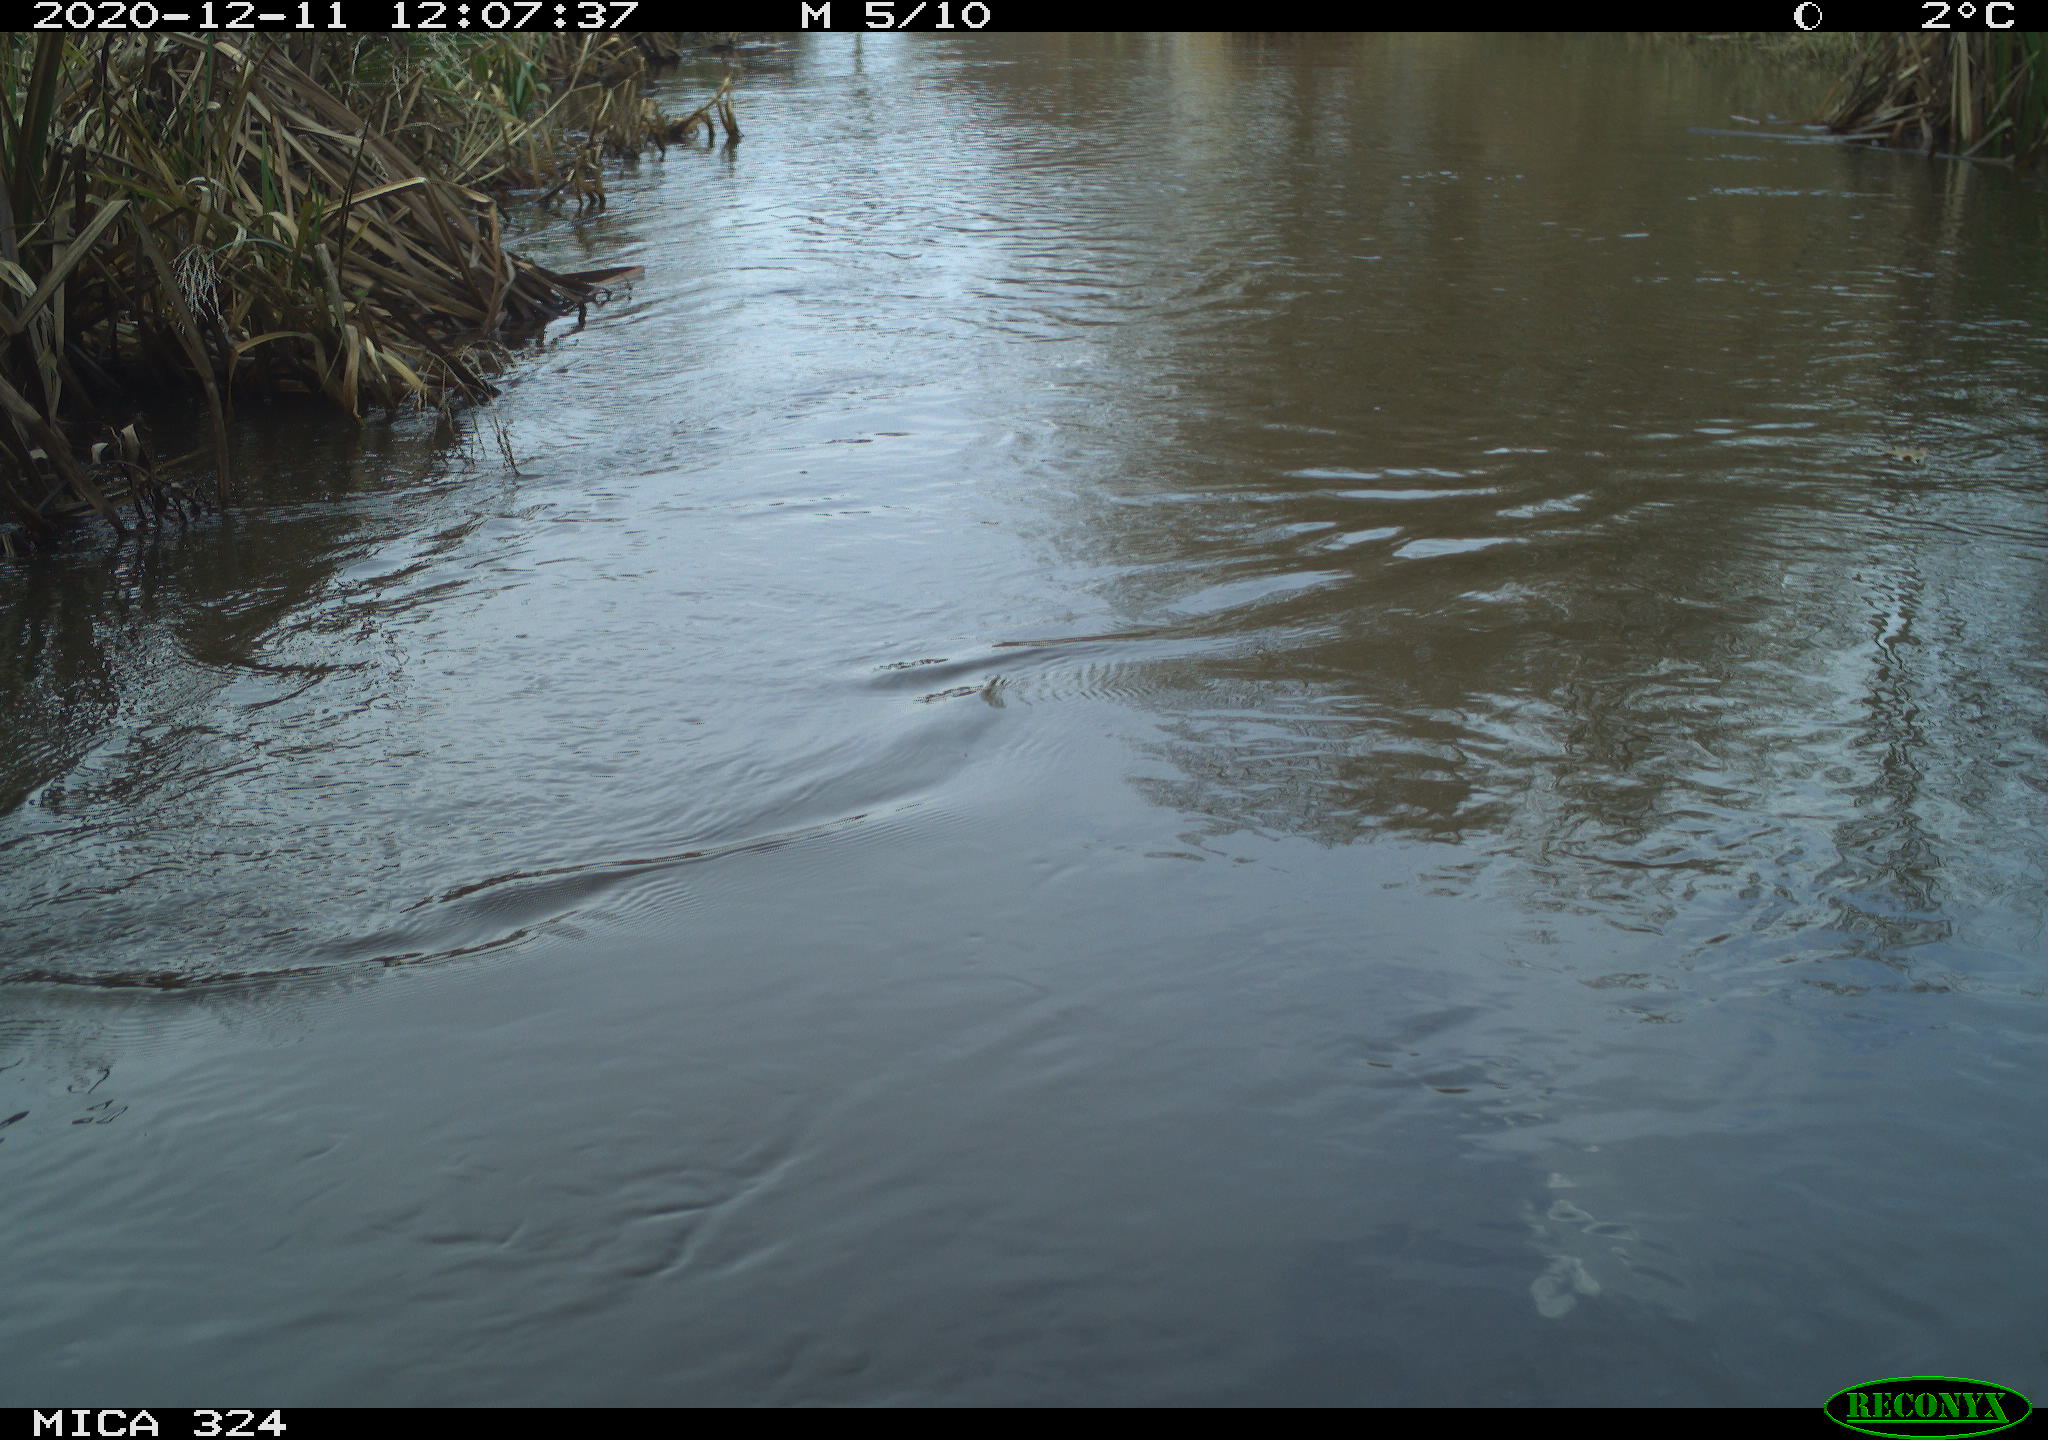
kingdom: Animalia
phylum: Chordata
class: Aves
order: Gruiformes
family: Rallidae
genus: Rallus
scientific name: Rallus aquaticus
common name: Water rail
